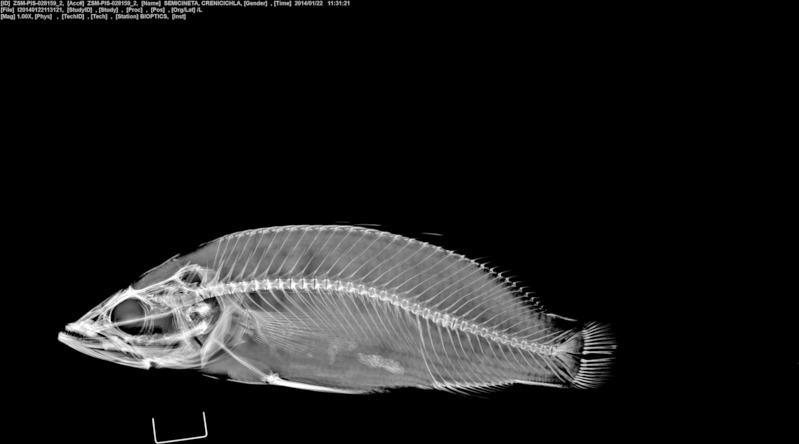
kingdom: Animalia
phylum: Chordata
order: Perciformes
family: Cichlidae
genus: Crenicichla
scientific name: Crenicichla semicincta
